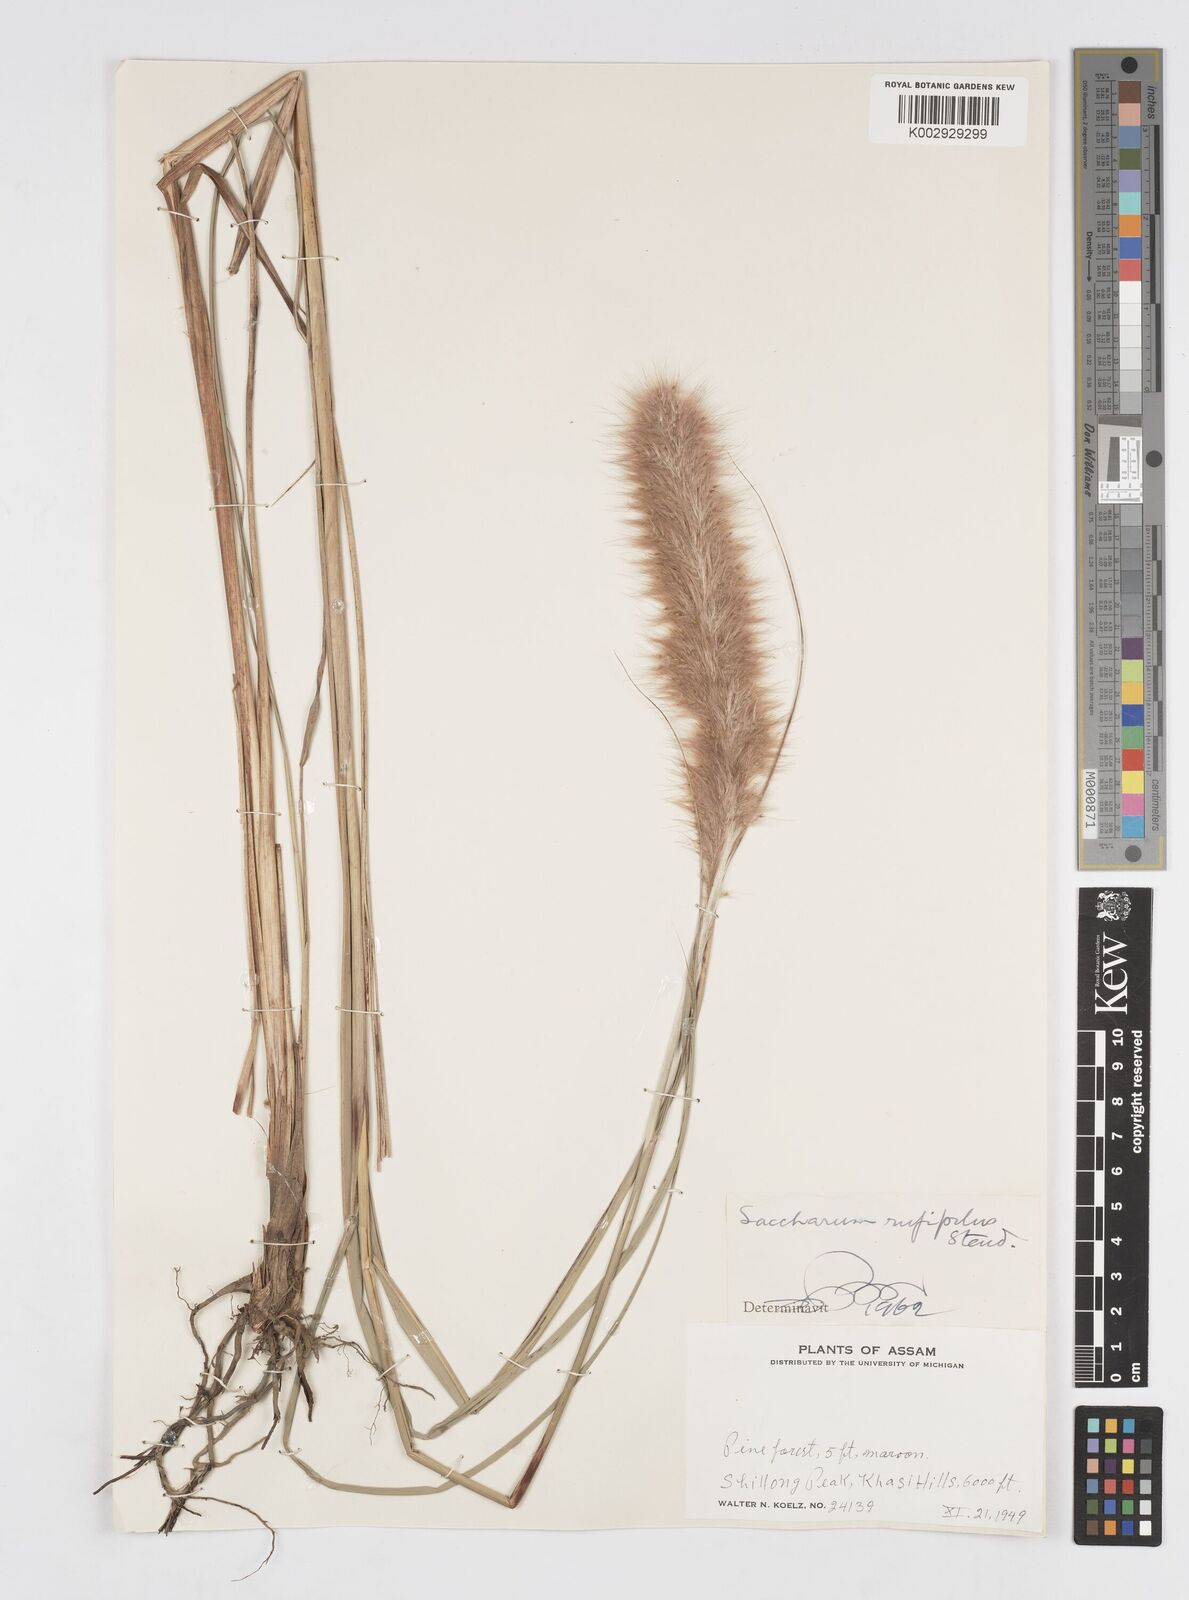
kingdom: Plantae
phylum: Tracheophyta
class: Liliopsida
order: Poales
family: Poaceae
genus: Tripidium
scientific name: Tripidium rufipilum
